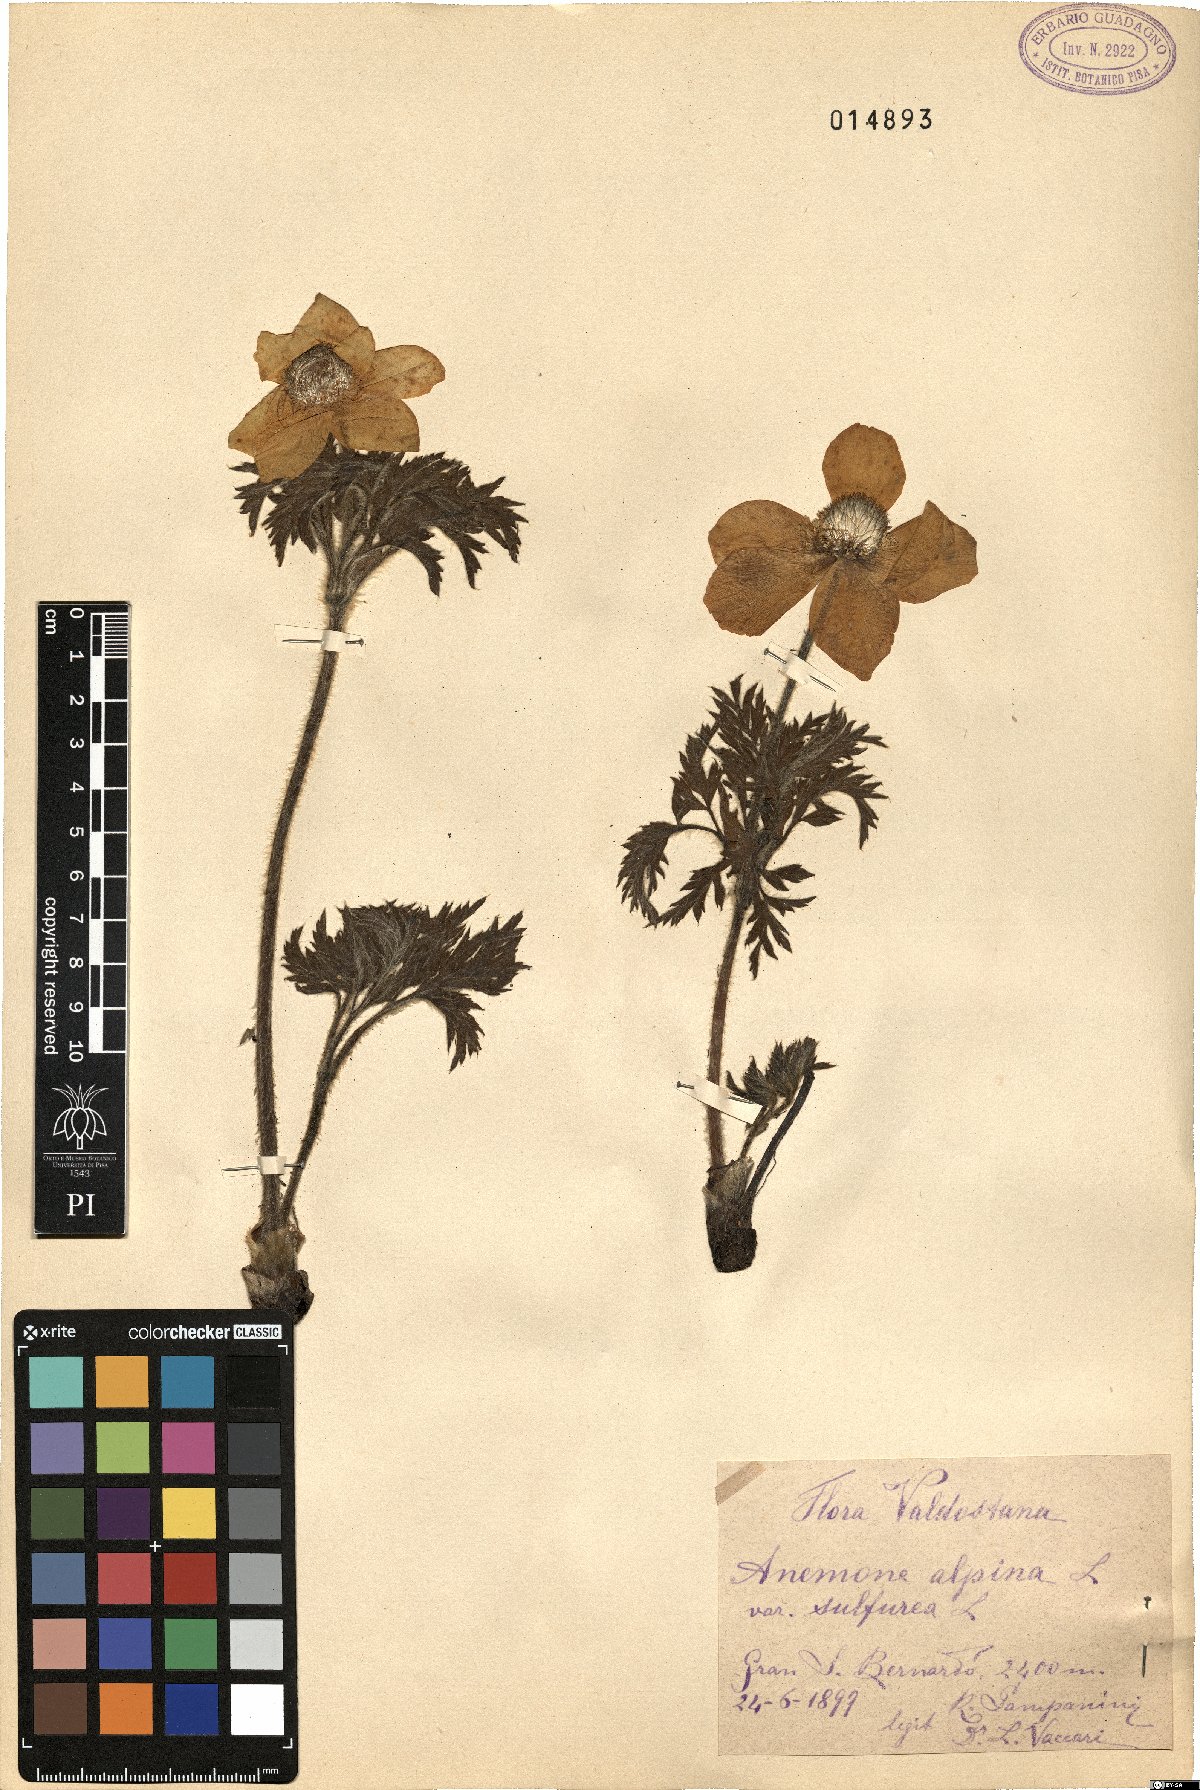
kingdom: Plantae
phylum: Tracheophyta
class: Magnoliopsida
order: Ranunculales
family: Ranunculaceae
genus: Pulsatilla
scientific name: Pulsatilla alpina
